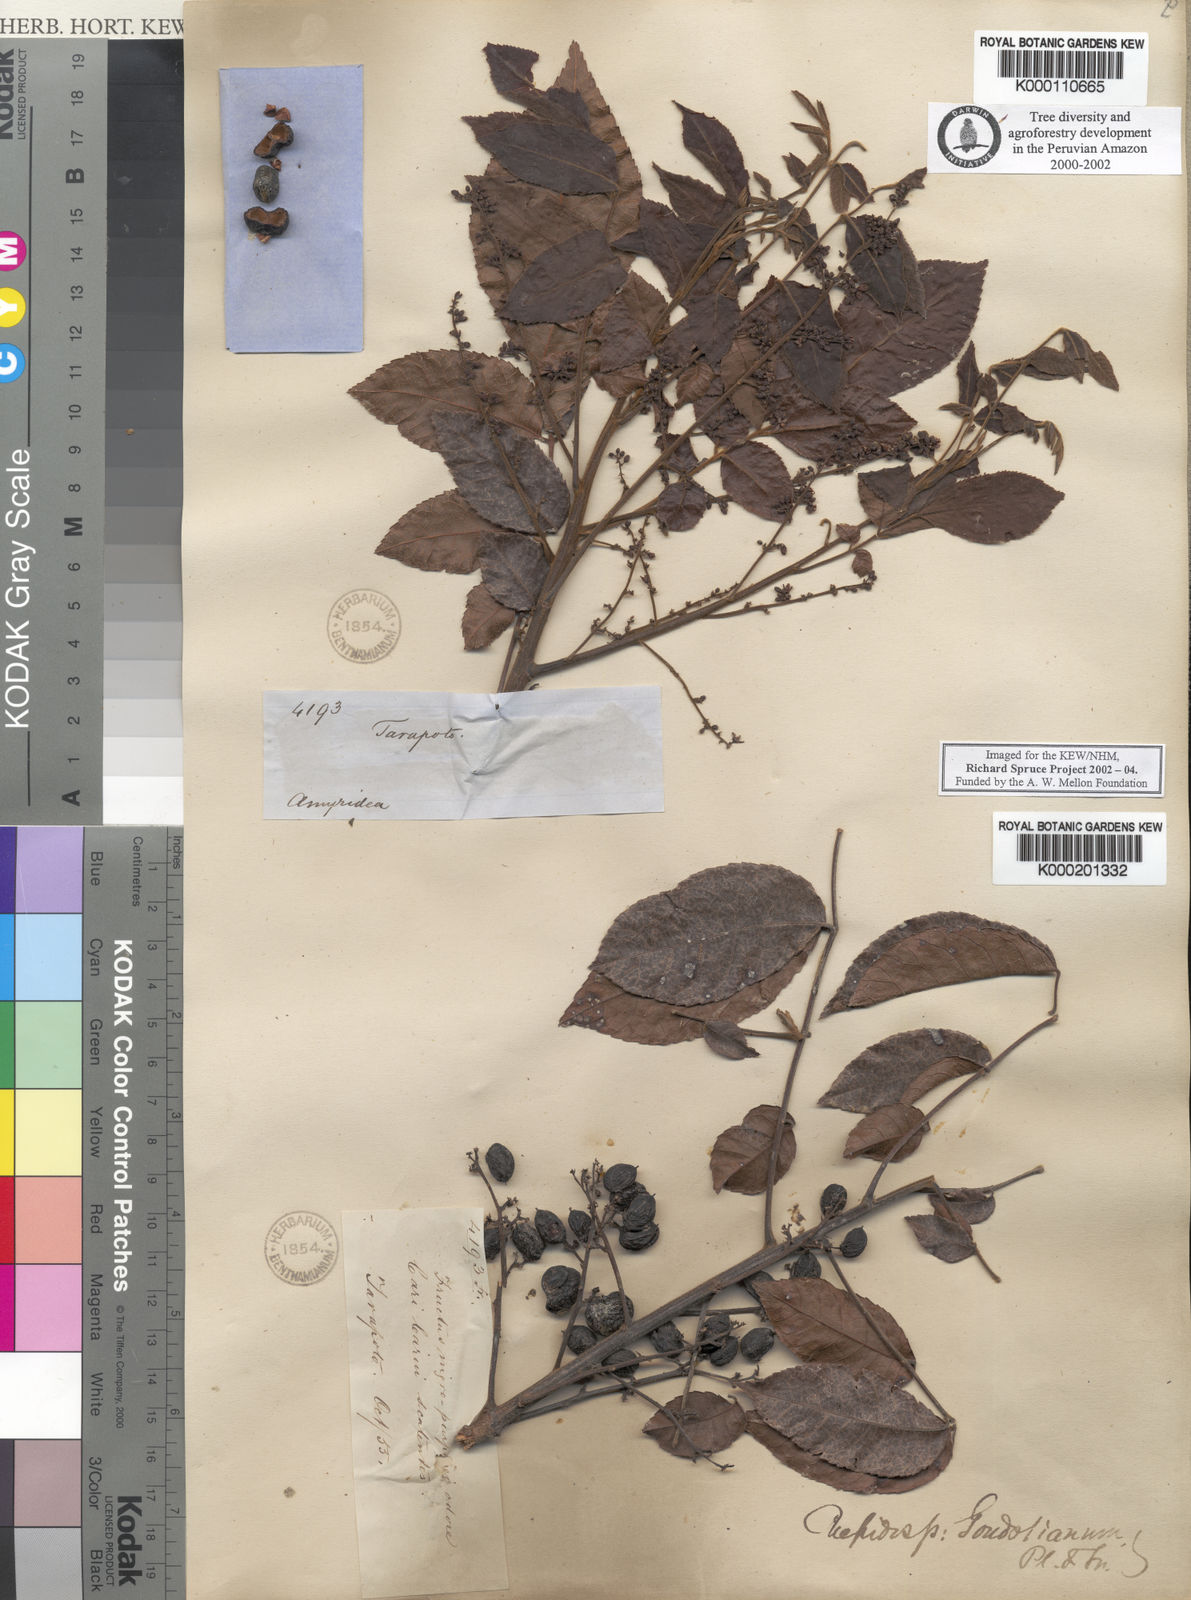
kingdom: Plantae
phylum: Tracheophyta
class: Magnoliopsida
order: Sapindales
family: Burseraceae
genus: Crepidospermum
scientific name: Crepidospermum goudotianum
